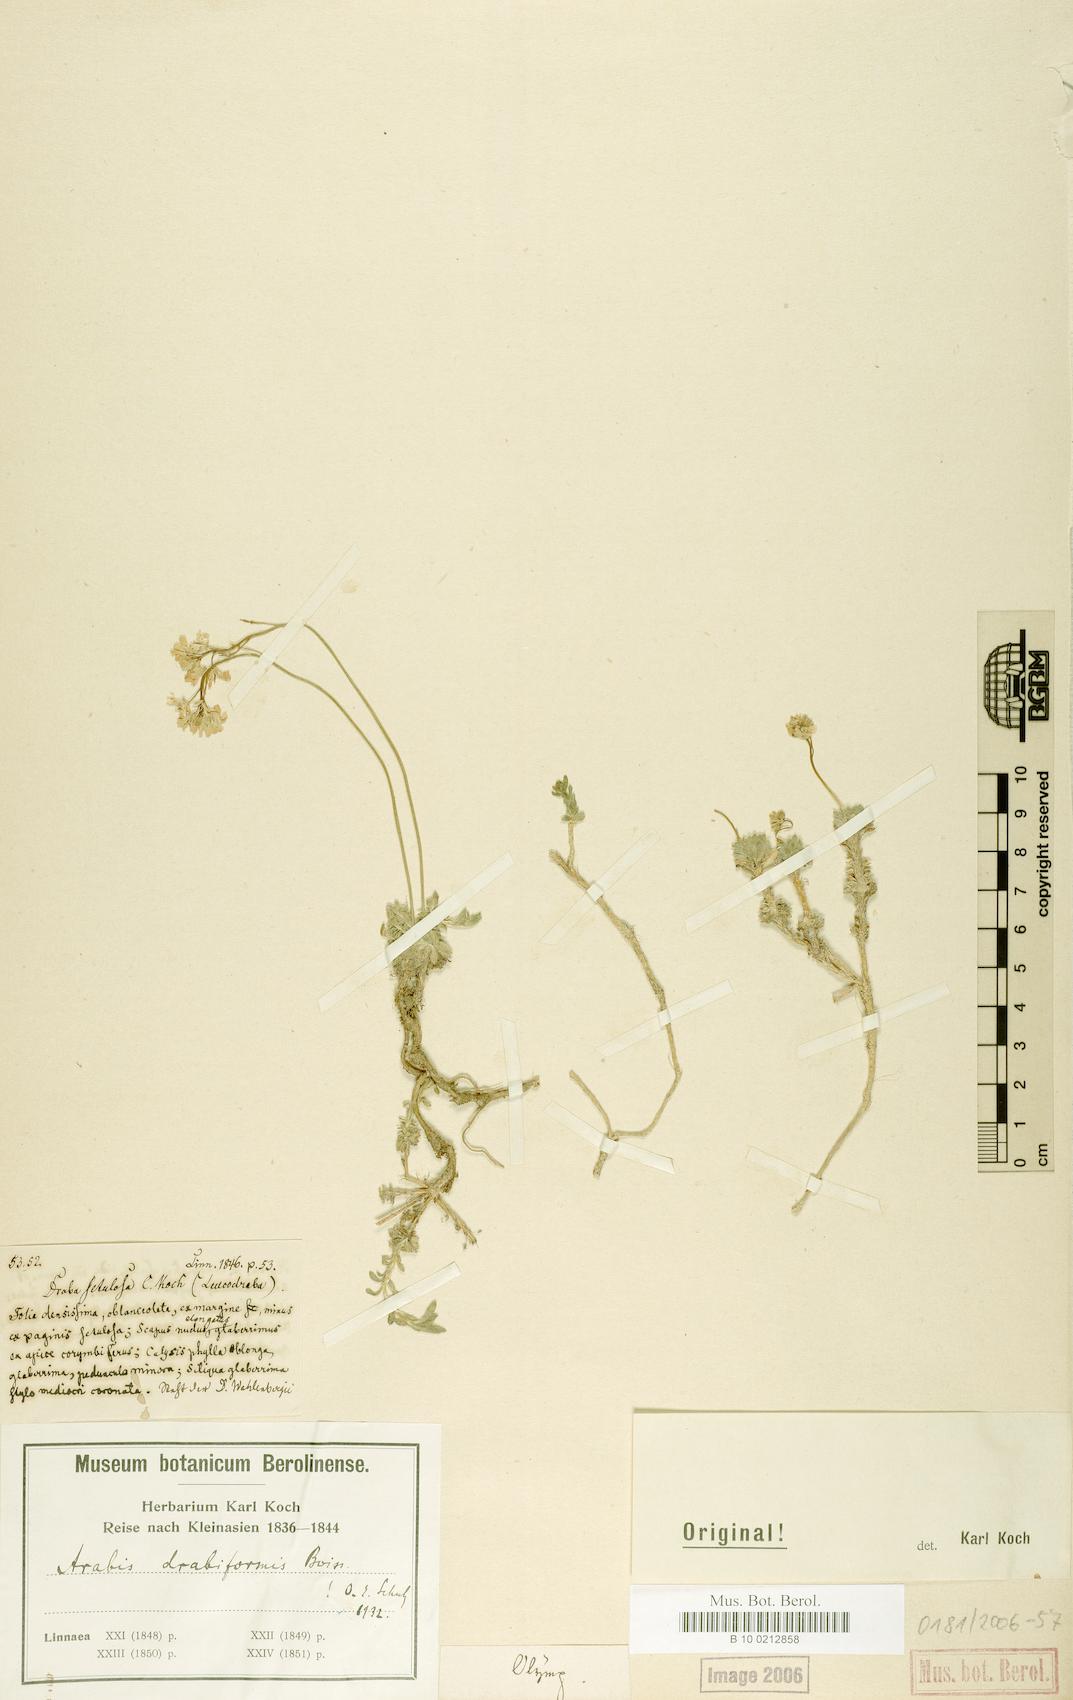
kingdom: Plantae
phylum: Tracheophyta
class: Magnoliopsida
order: Brassicales
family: Brassicaceae
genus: Arabis
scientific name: Arabis drabaeformis
